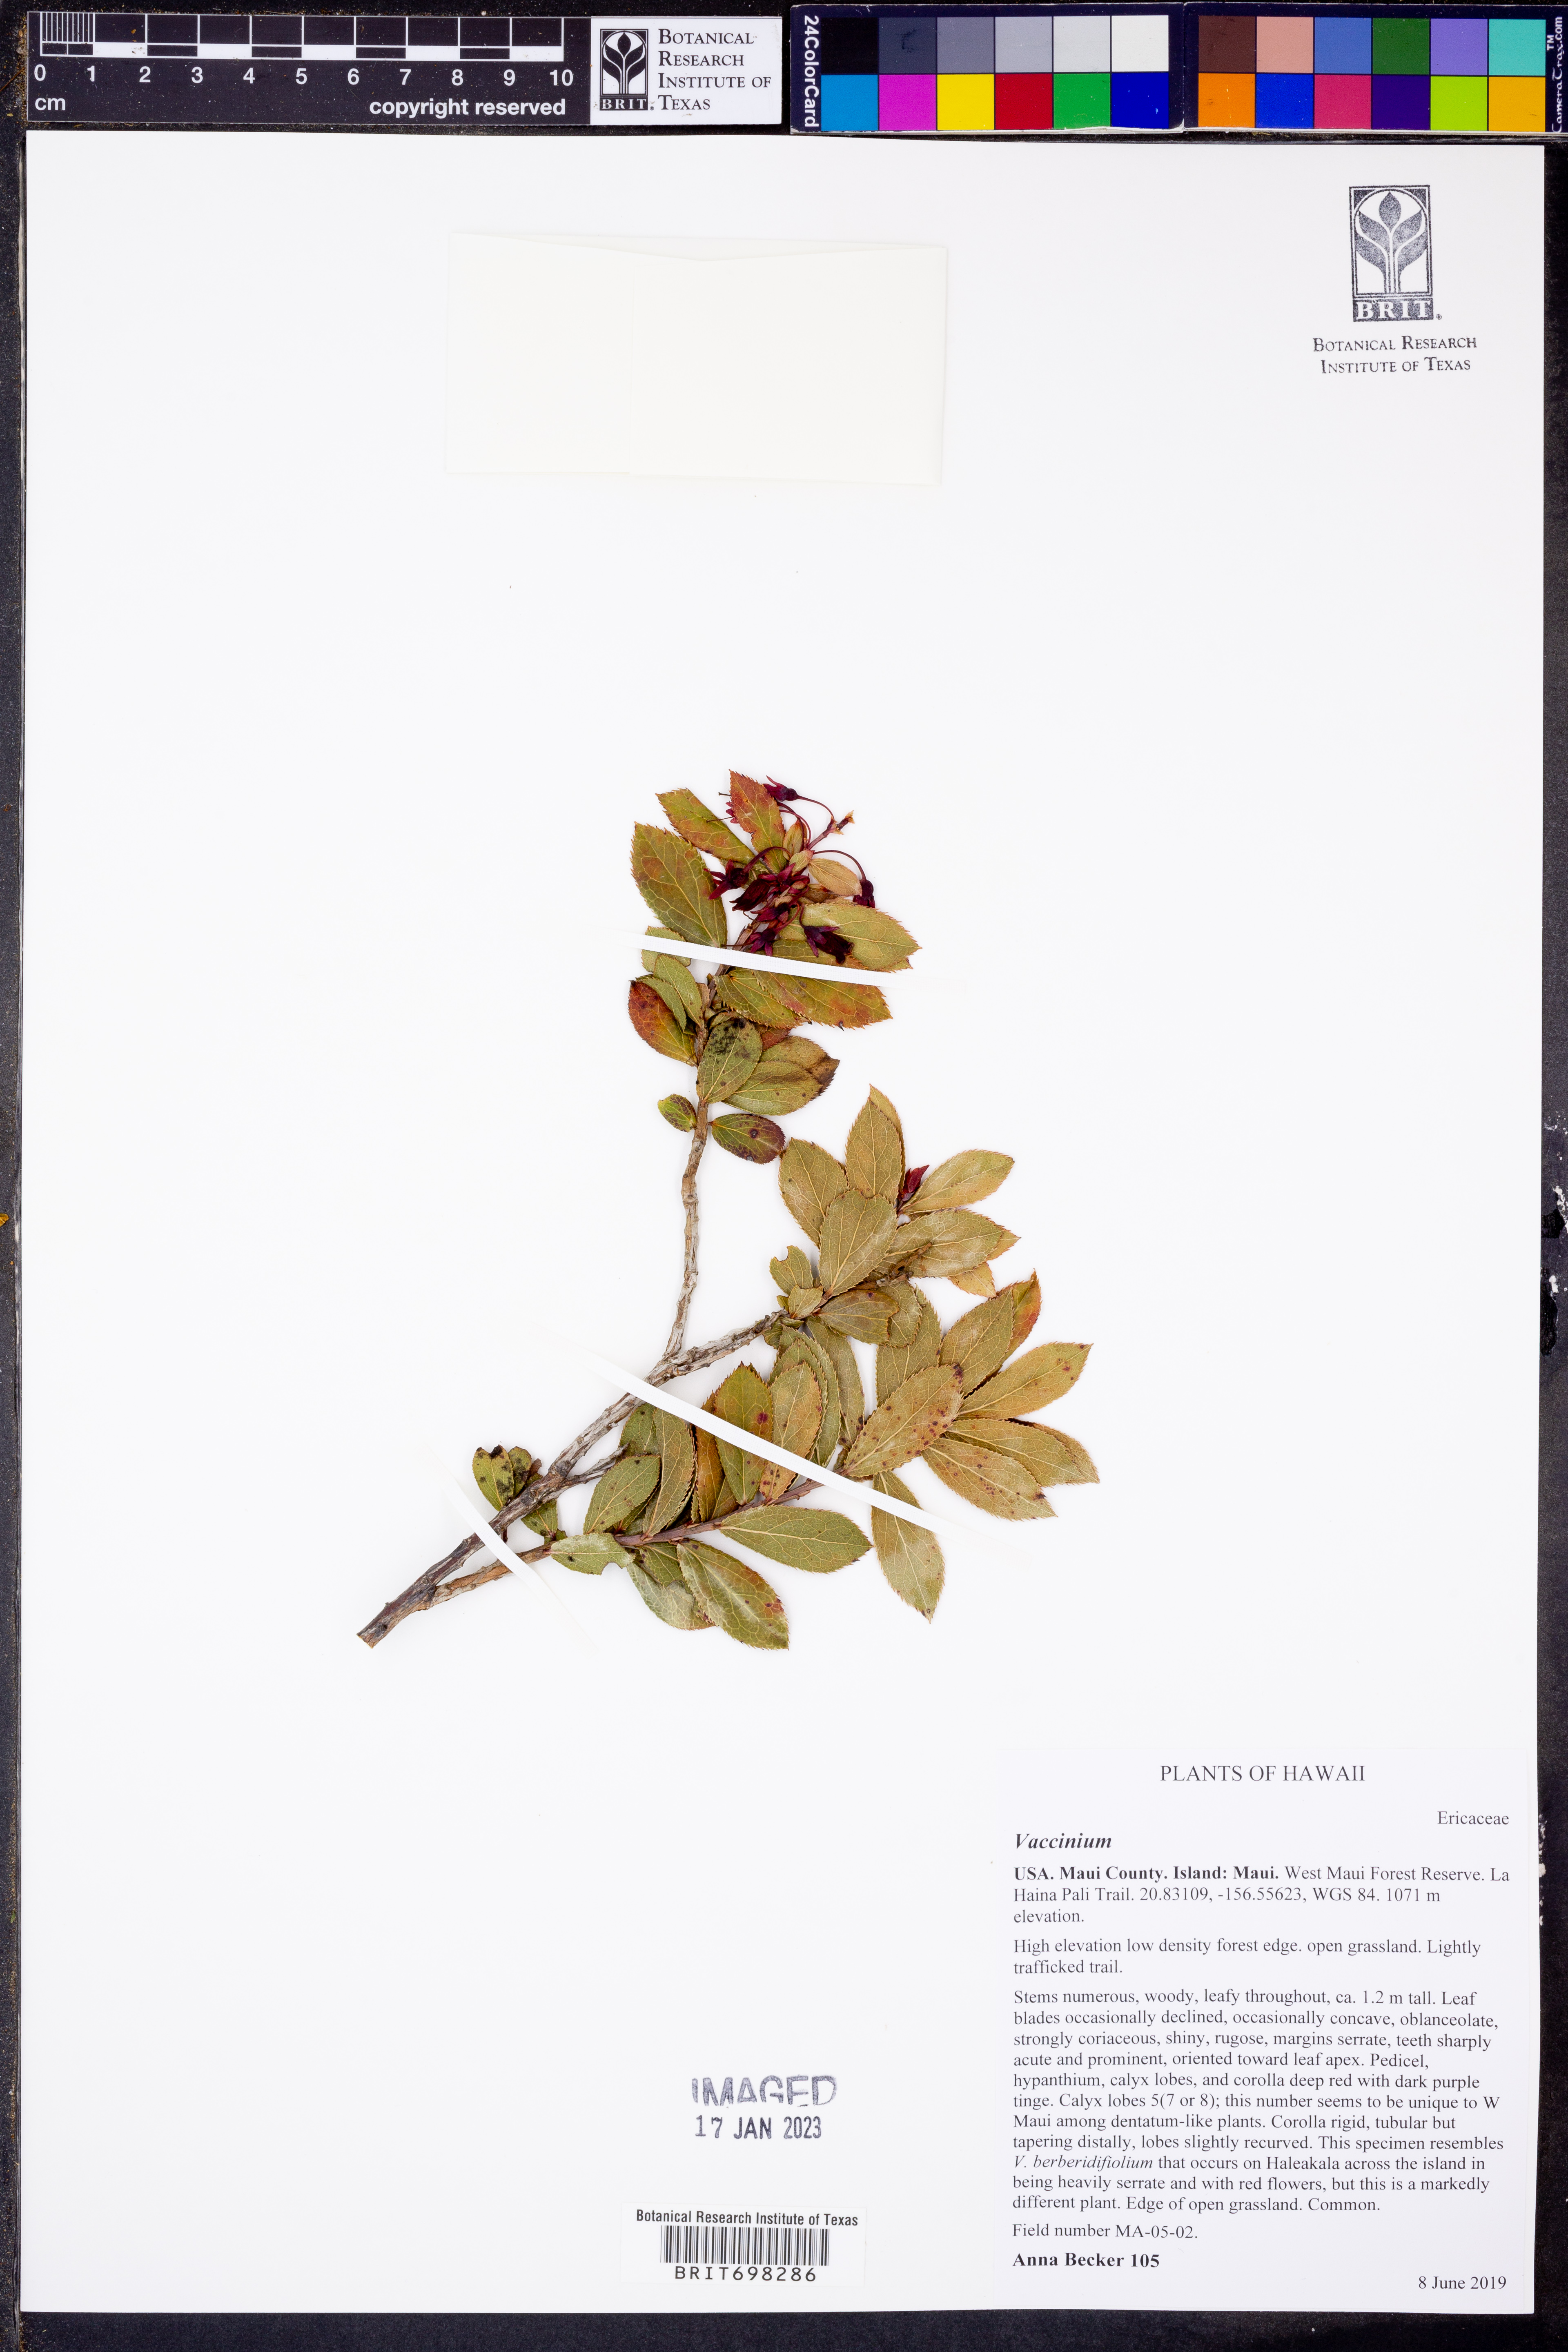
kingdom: Plantae
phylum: Tracheophyta
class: Magnoliopsida
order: Ericales
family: Ericaceae
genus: Vaccinium
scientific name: Vaccinium
